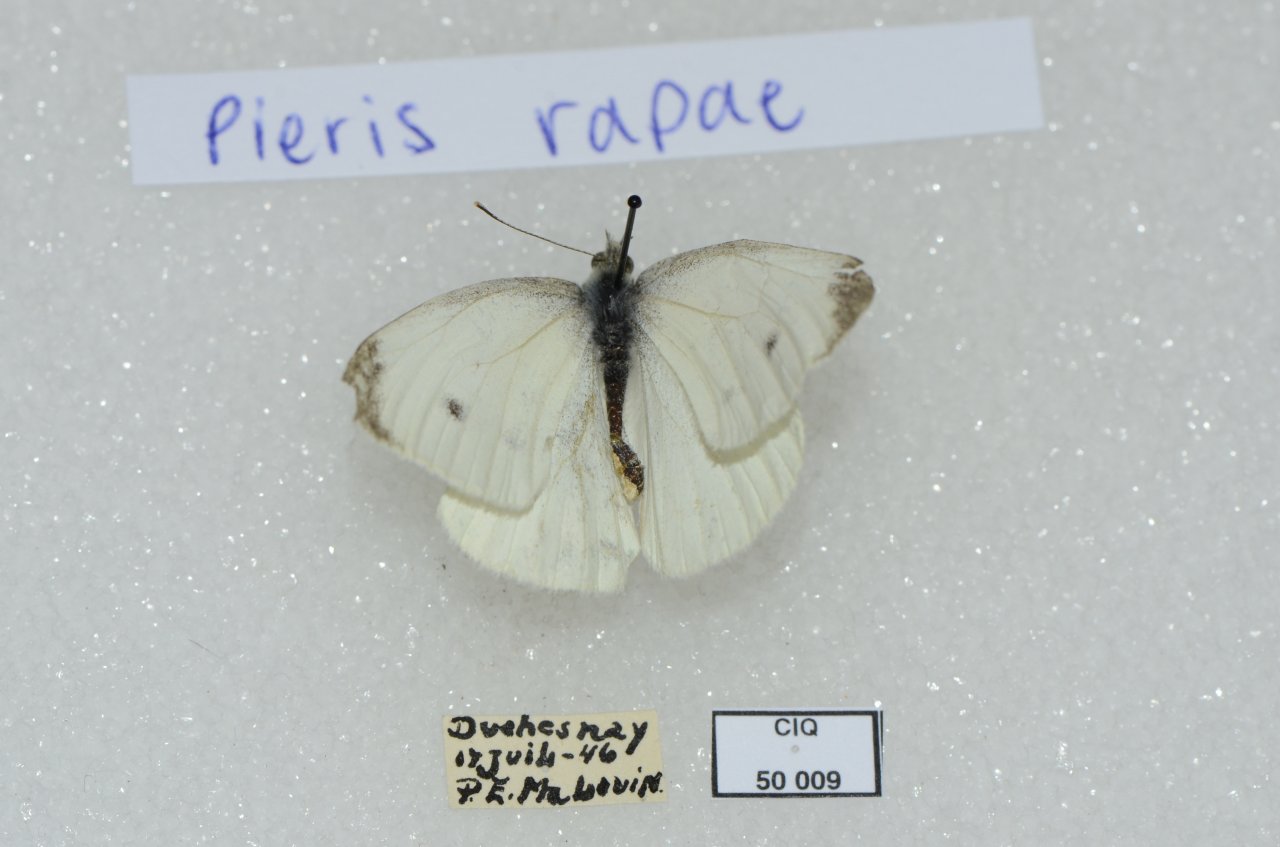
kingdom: Animalia
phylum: Arthropoda
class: Insecta
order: Lepidoptera
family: Pieridae
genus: Pieris
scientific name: Pieris rapae
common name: Cabbage White
